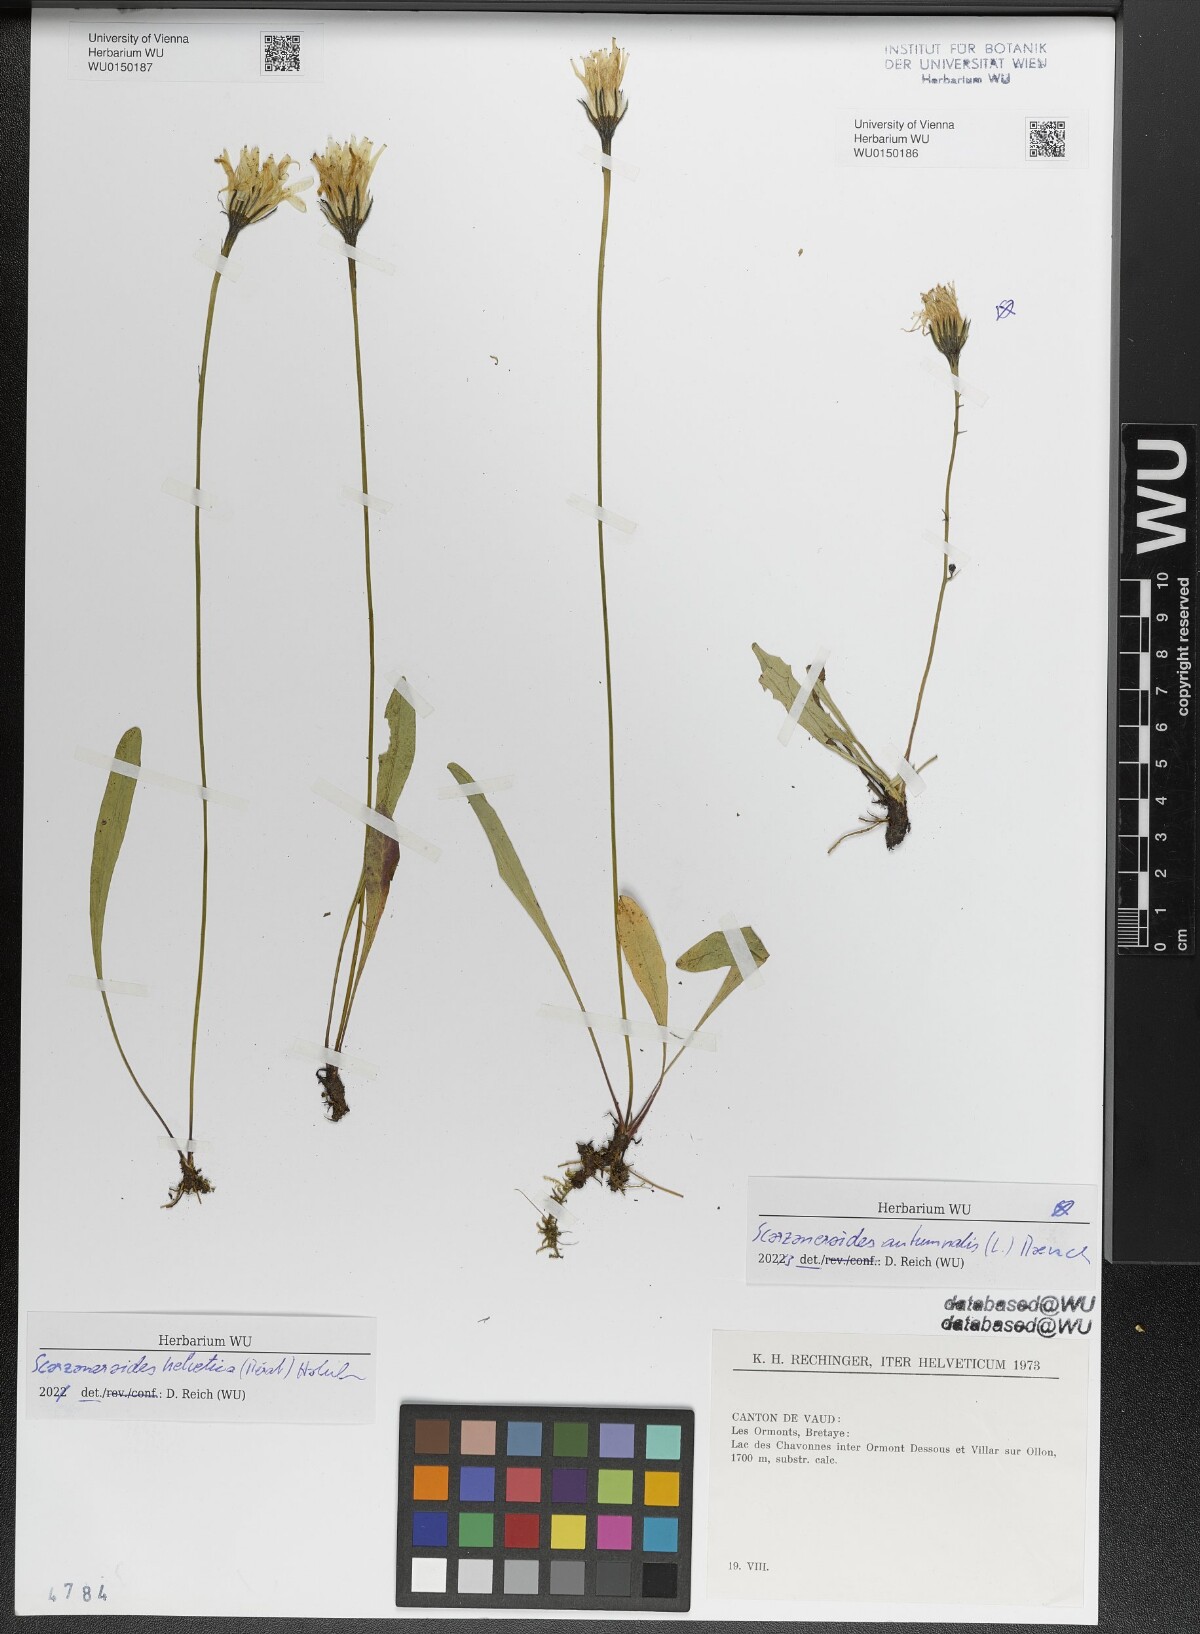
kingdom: Plantae
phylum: Tracheophyta
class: Magnoliopsida
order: Asterales
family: Asteraceae
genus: Scorzoneroides
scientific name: Scorzoneroides autumnalis
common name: Autumn hawkbit
